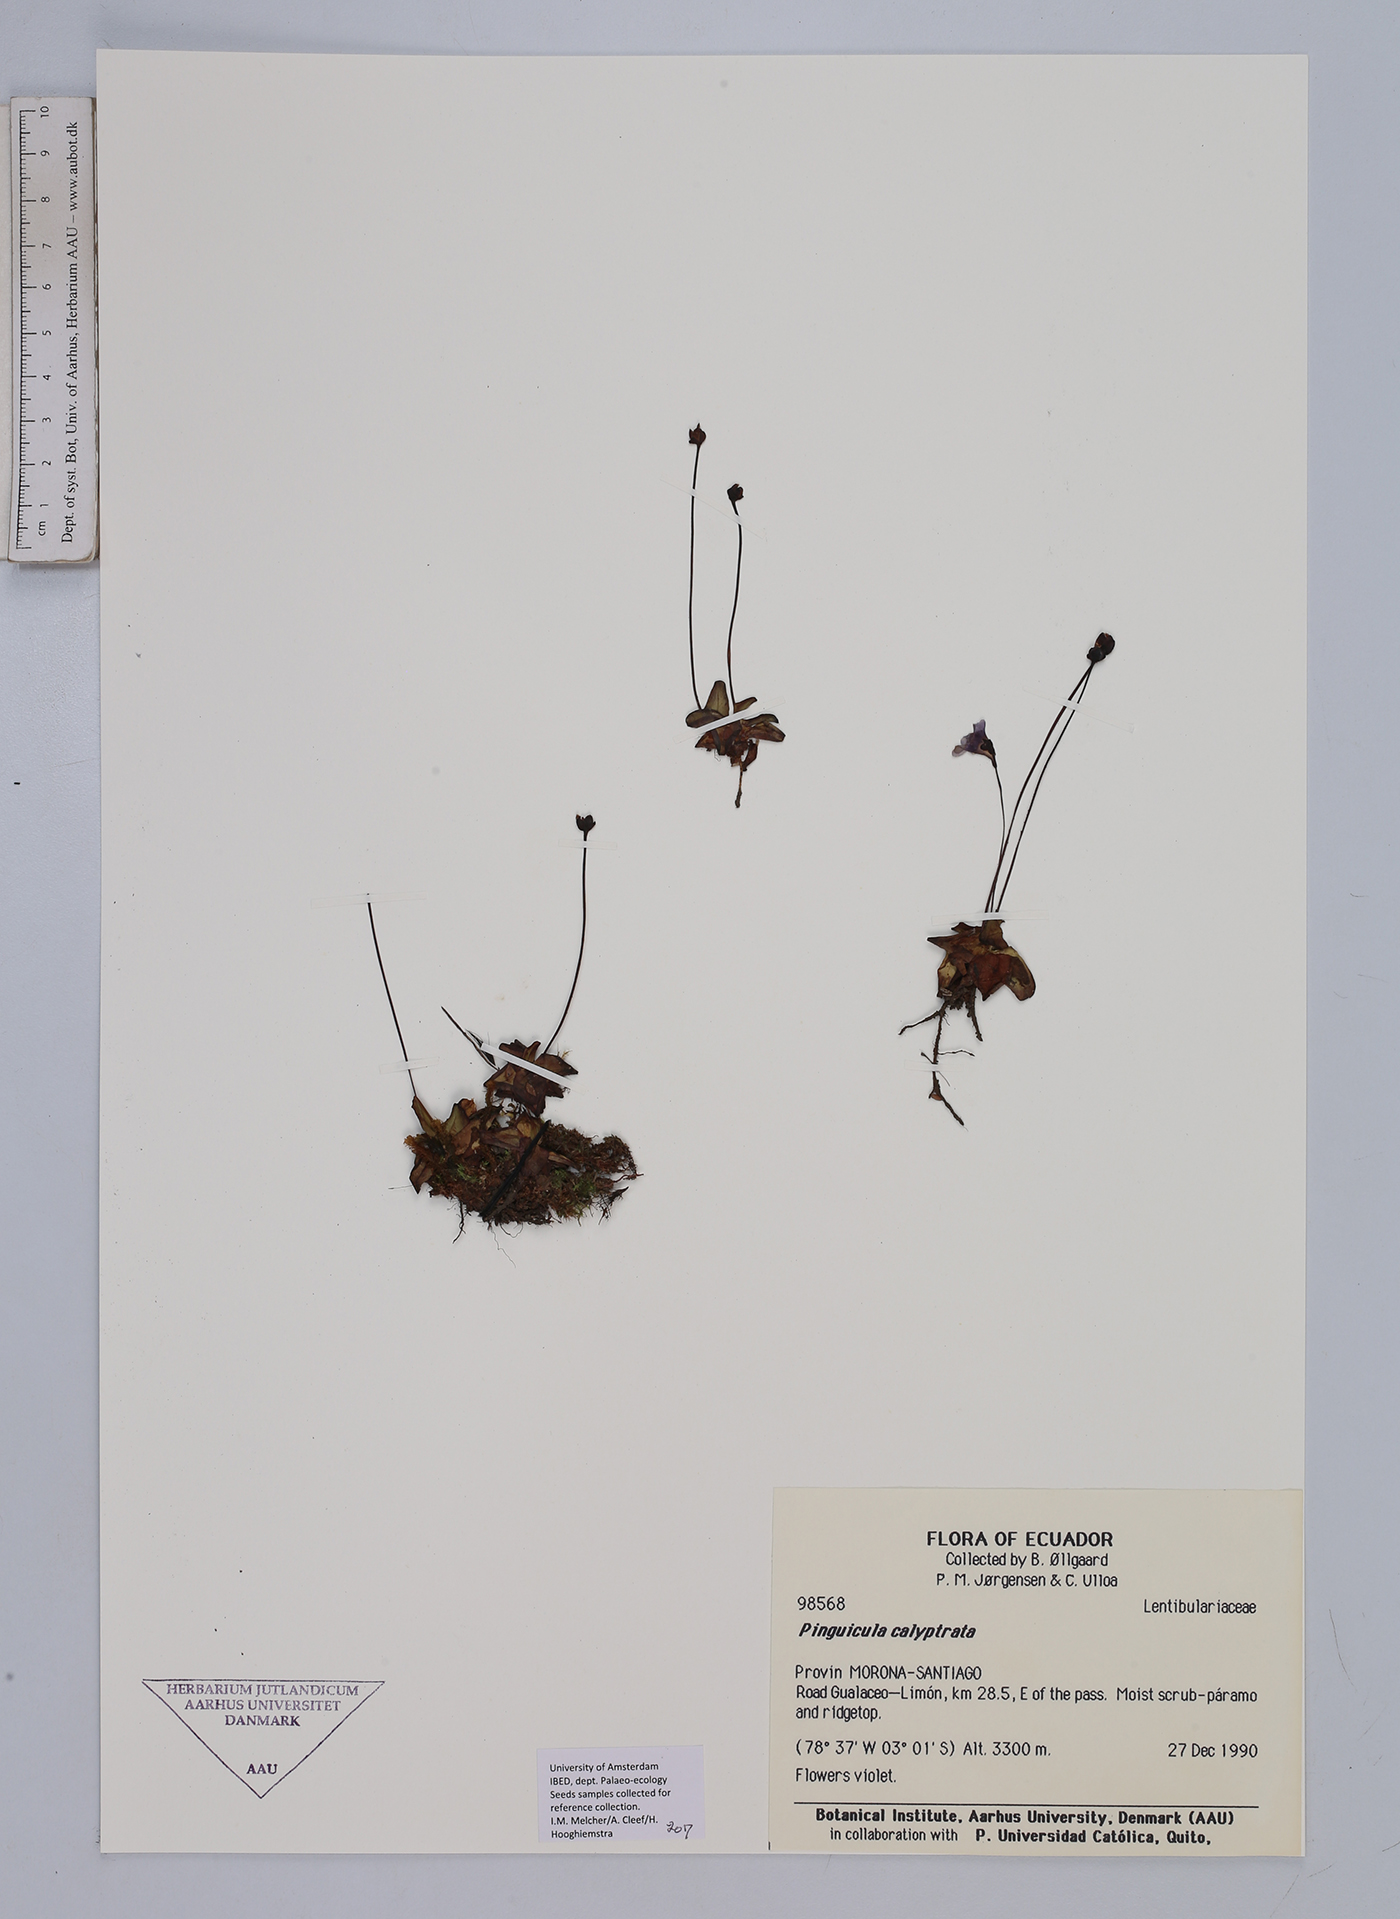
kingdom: Plantae
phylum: Tracheophyta
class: Magnoliopsida
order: Lamiales
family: Lentibulariaceae
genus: Pinguicula
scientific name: Pinguicula calyptrata
